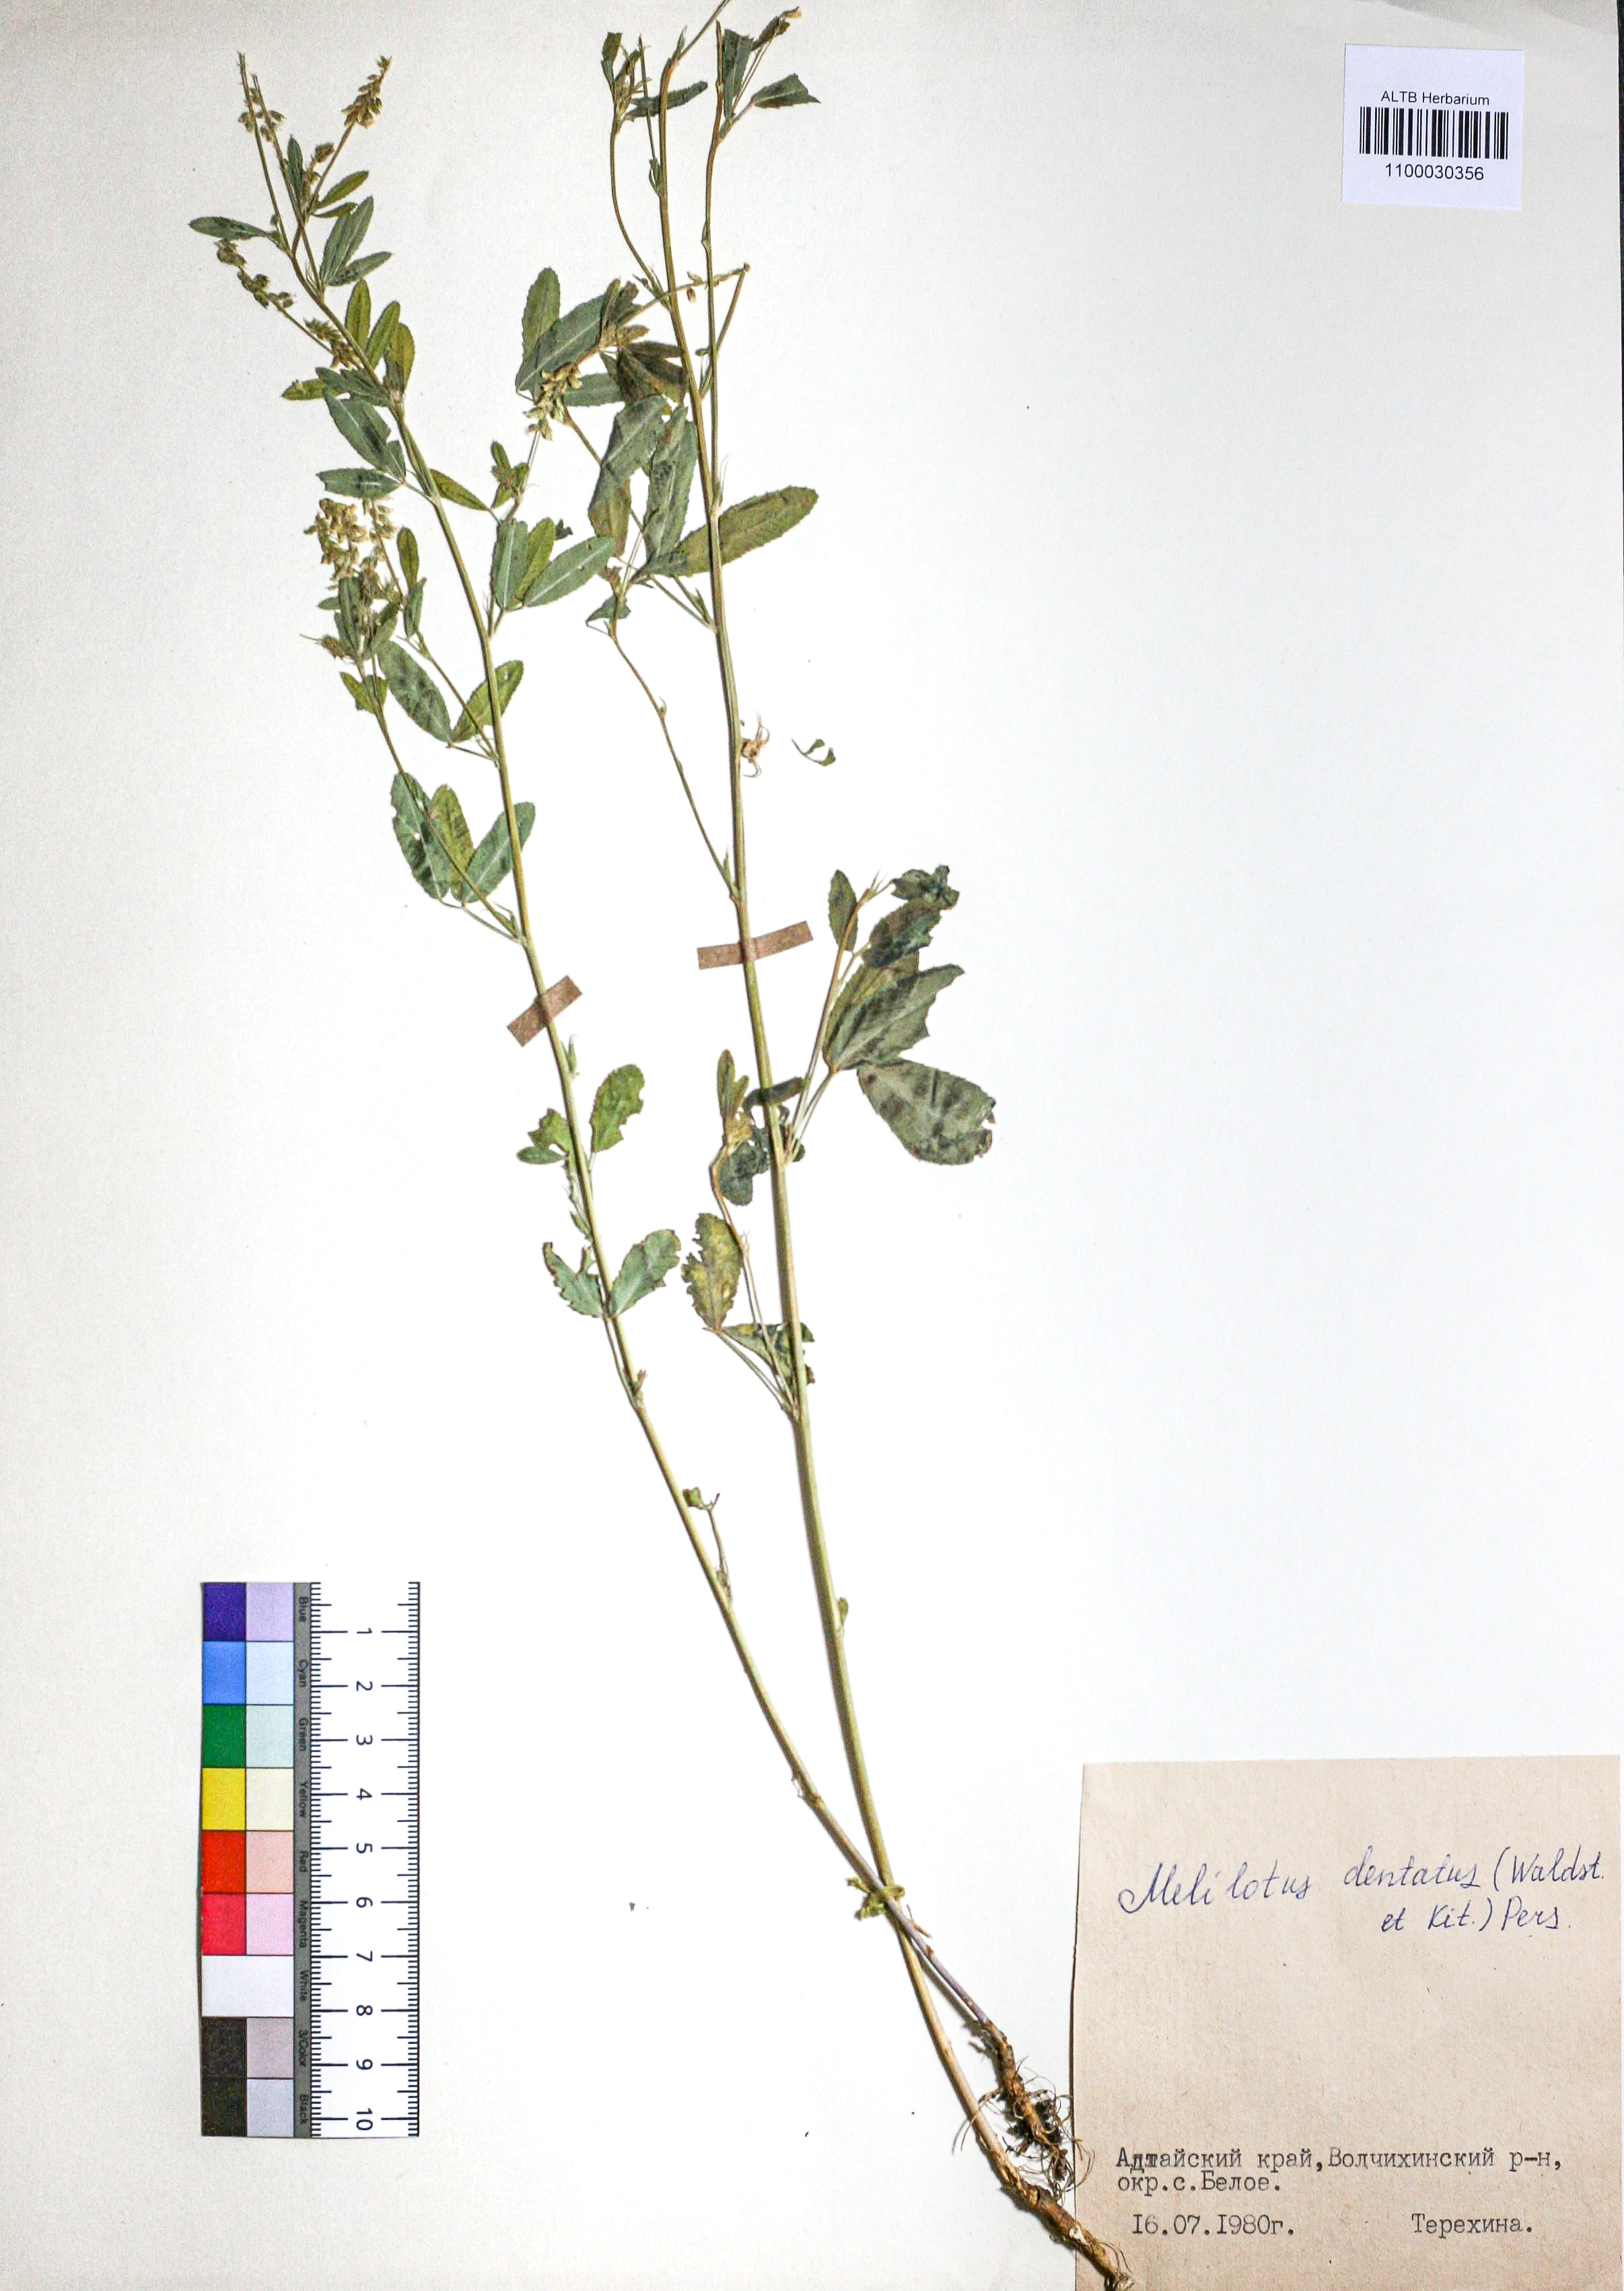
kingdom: Plantae
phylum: Tracheophyta
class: Magnoliopsida
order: Fabales
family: Fabaceae
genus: Melilotus
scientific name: Melilotus dentatus
